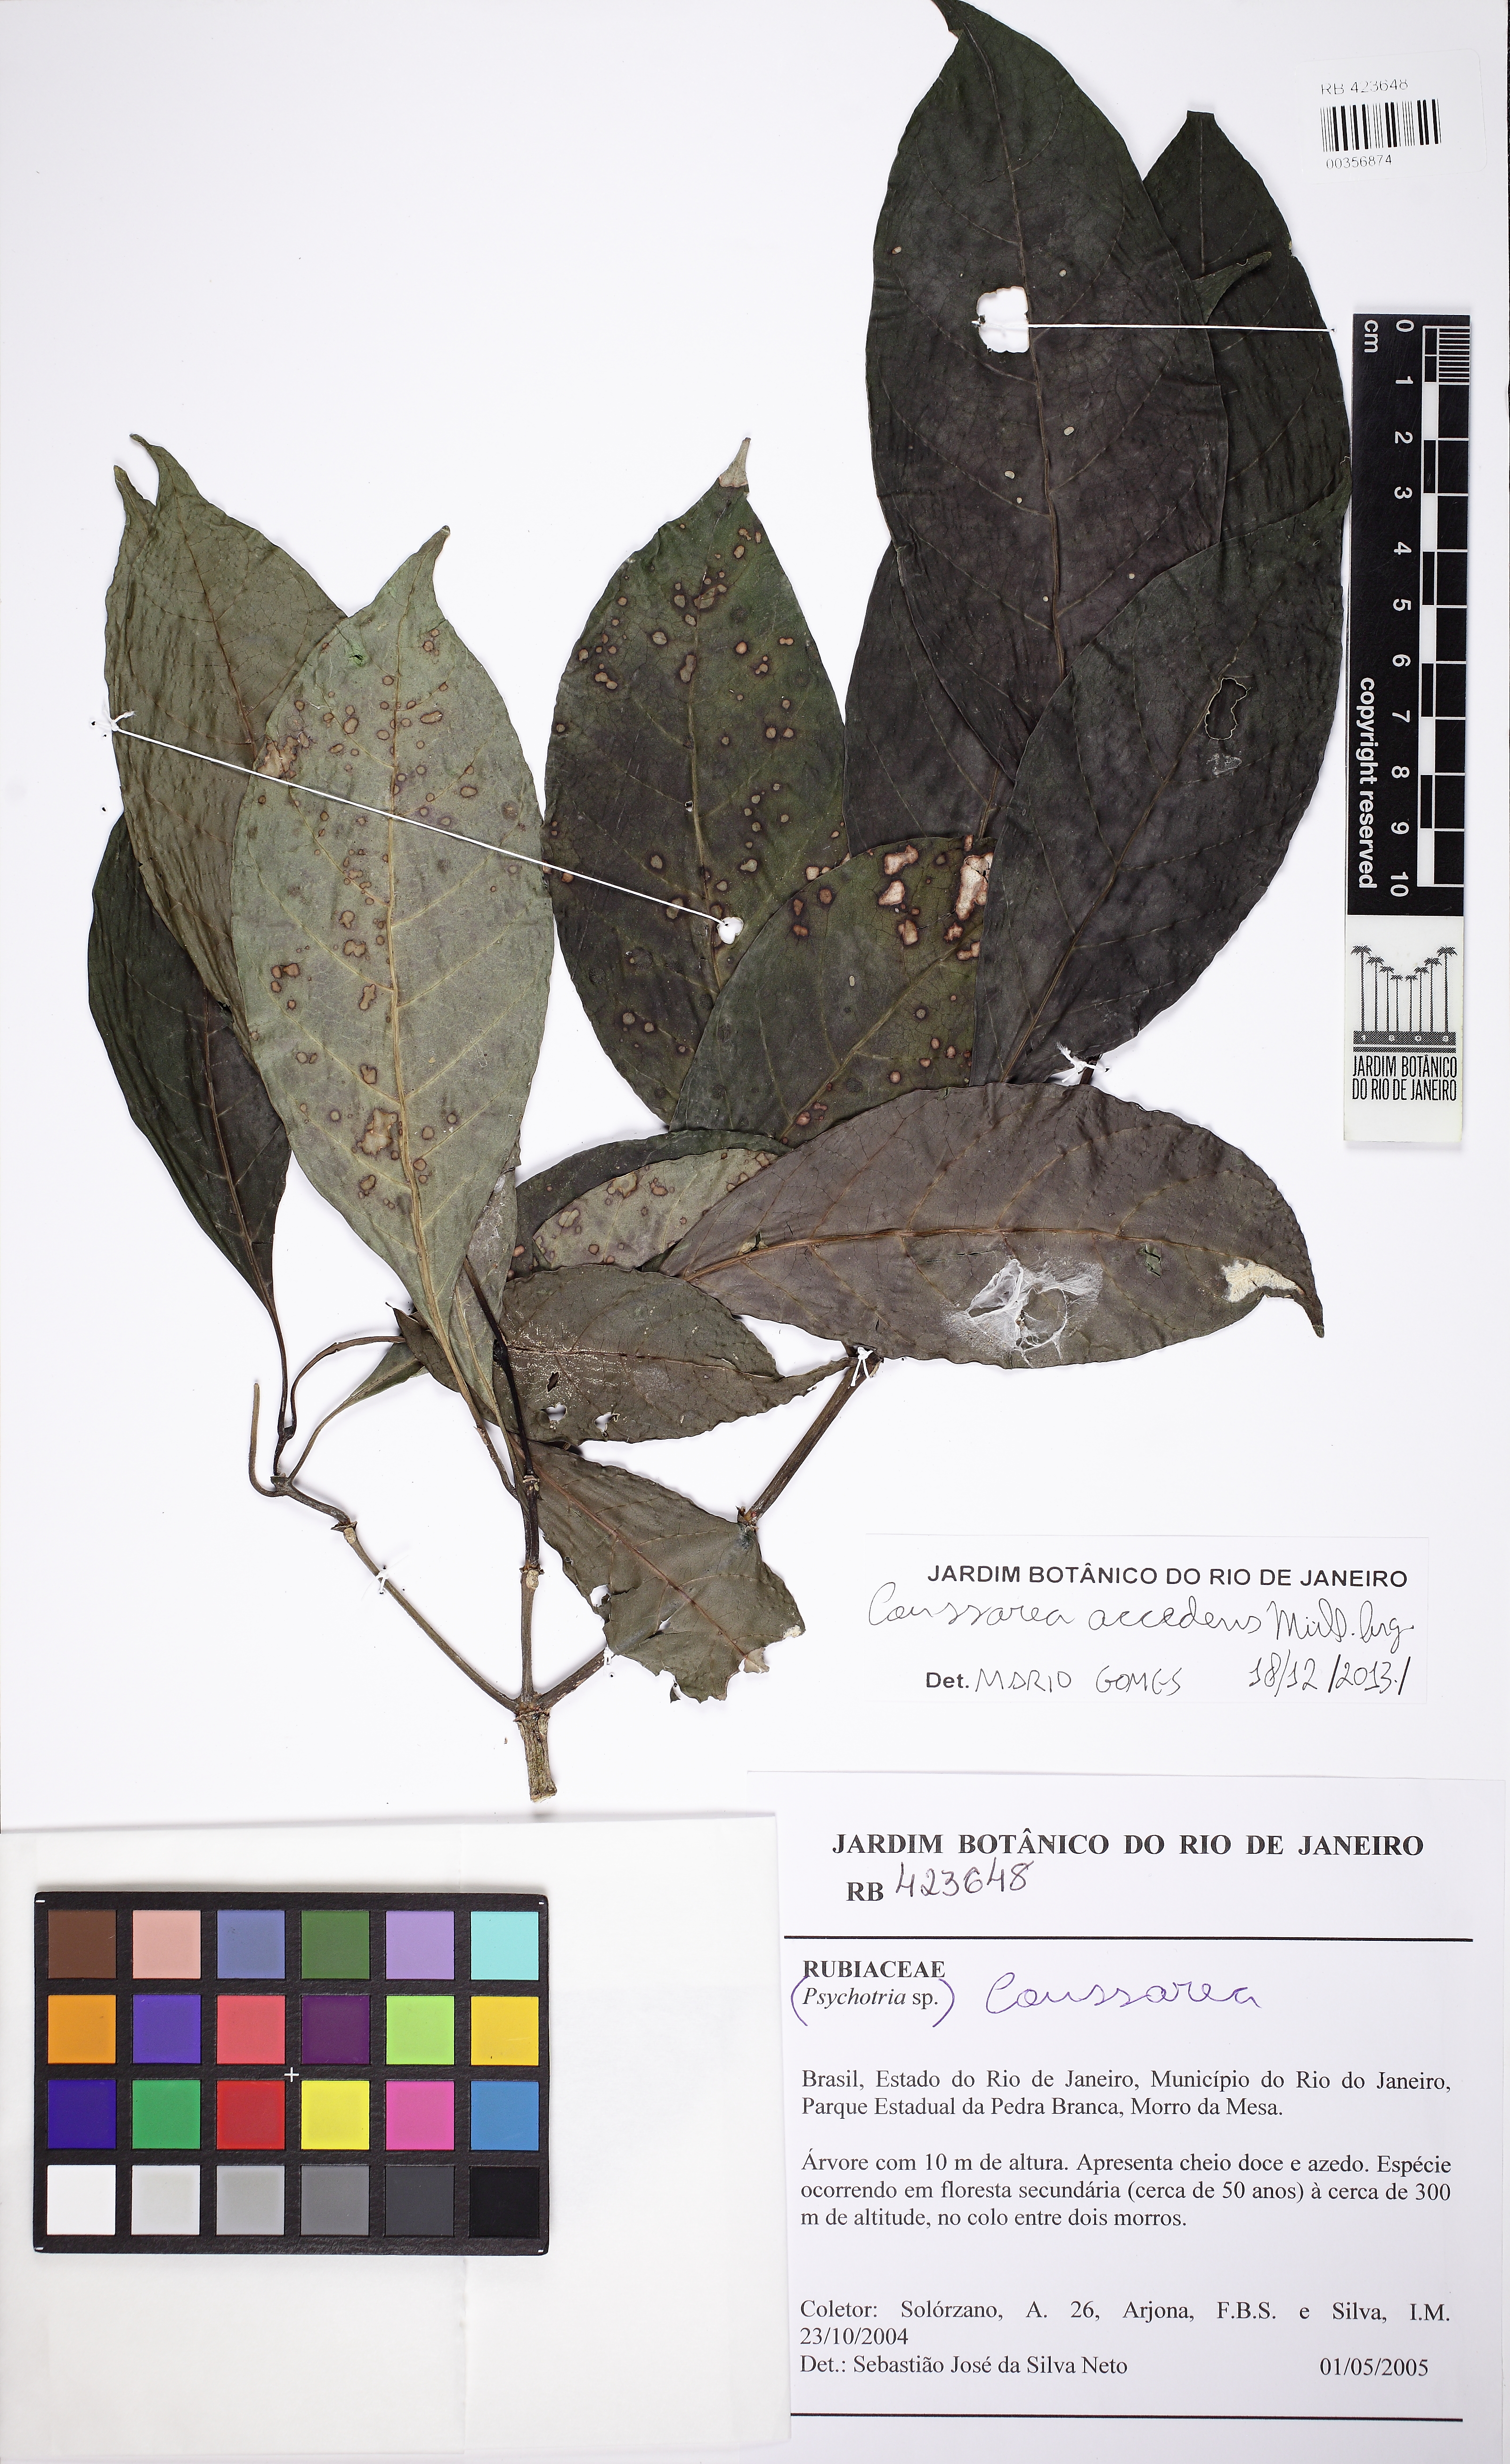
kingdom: Plantae
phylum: Tracheophyta
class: Magnoliopsida
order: Gentianales
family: Rubiaceae
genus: Coussarea
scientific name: Coussarea accedens
